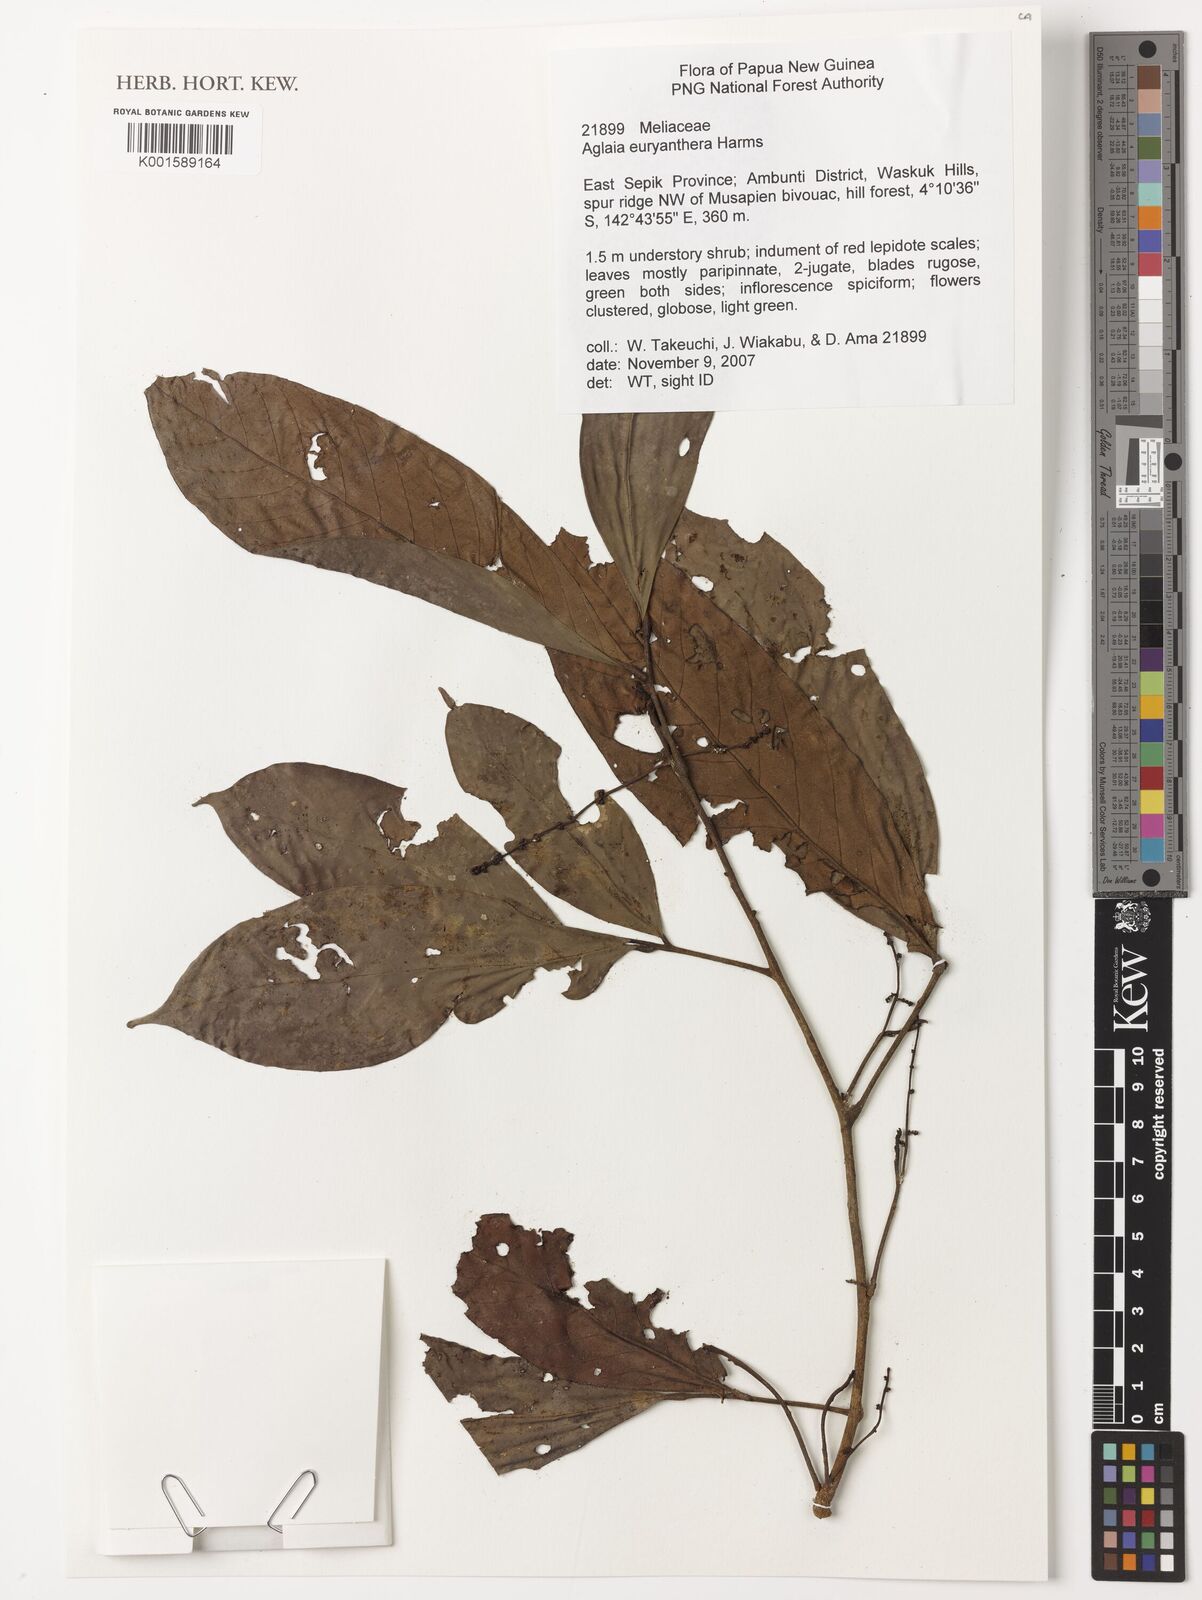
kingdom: Plantae
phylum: Tracheophyta
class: Magnoliopsida
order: Sapindales
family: Meliaceae
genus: Aglaia
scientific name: Aglaia euryanthera
